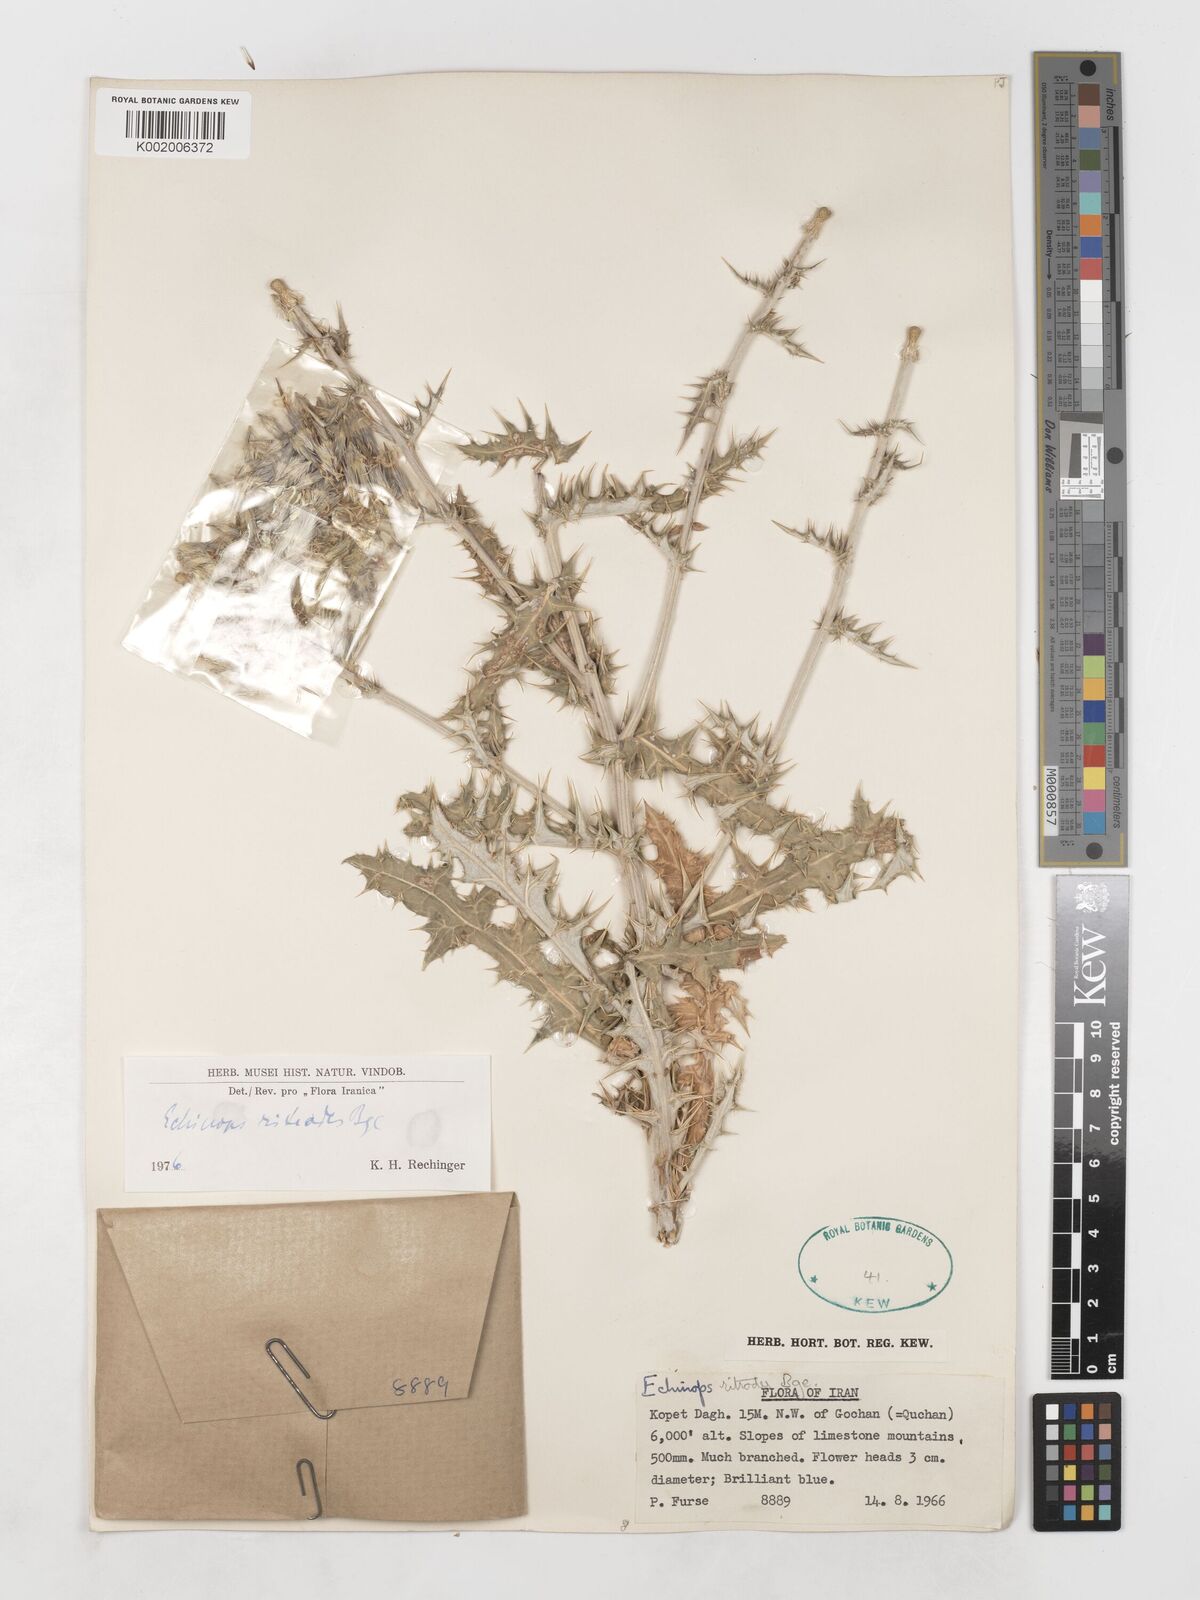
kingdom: Plantae
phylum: Tracheophyta
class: Magnoliopsida
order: Asterales
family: Asteraceae
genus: Echinops
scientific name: Echinops ritrodes
